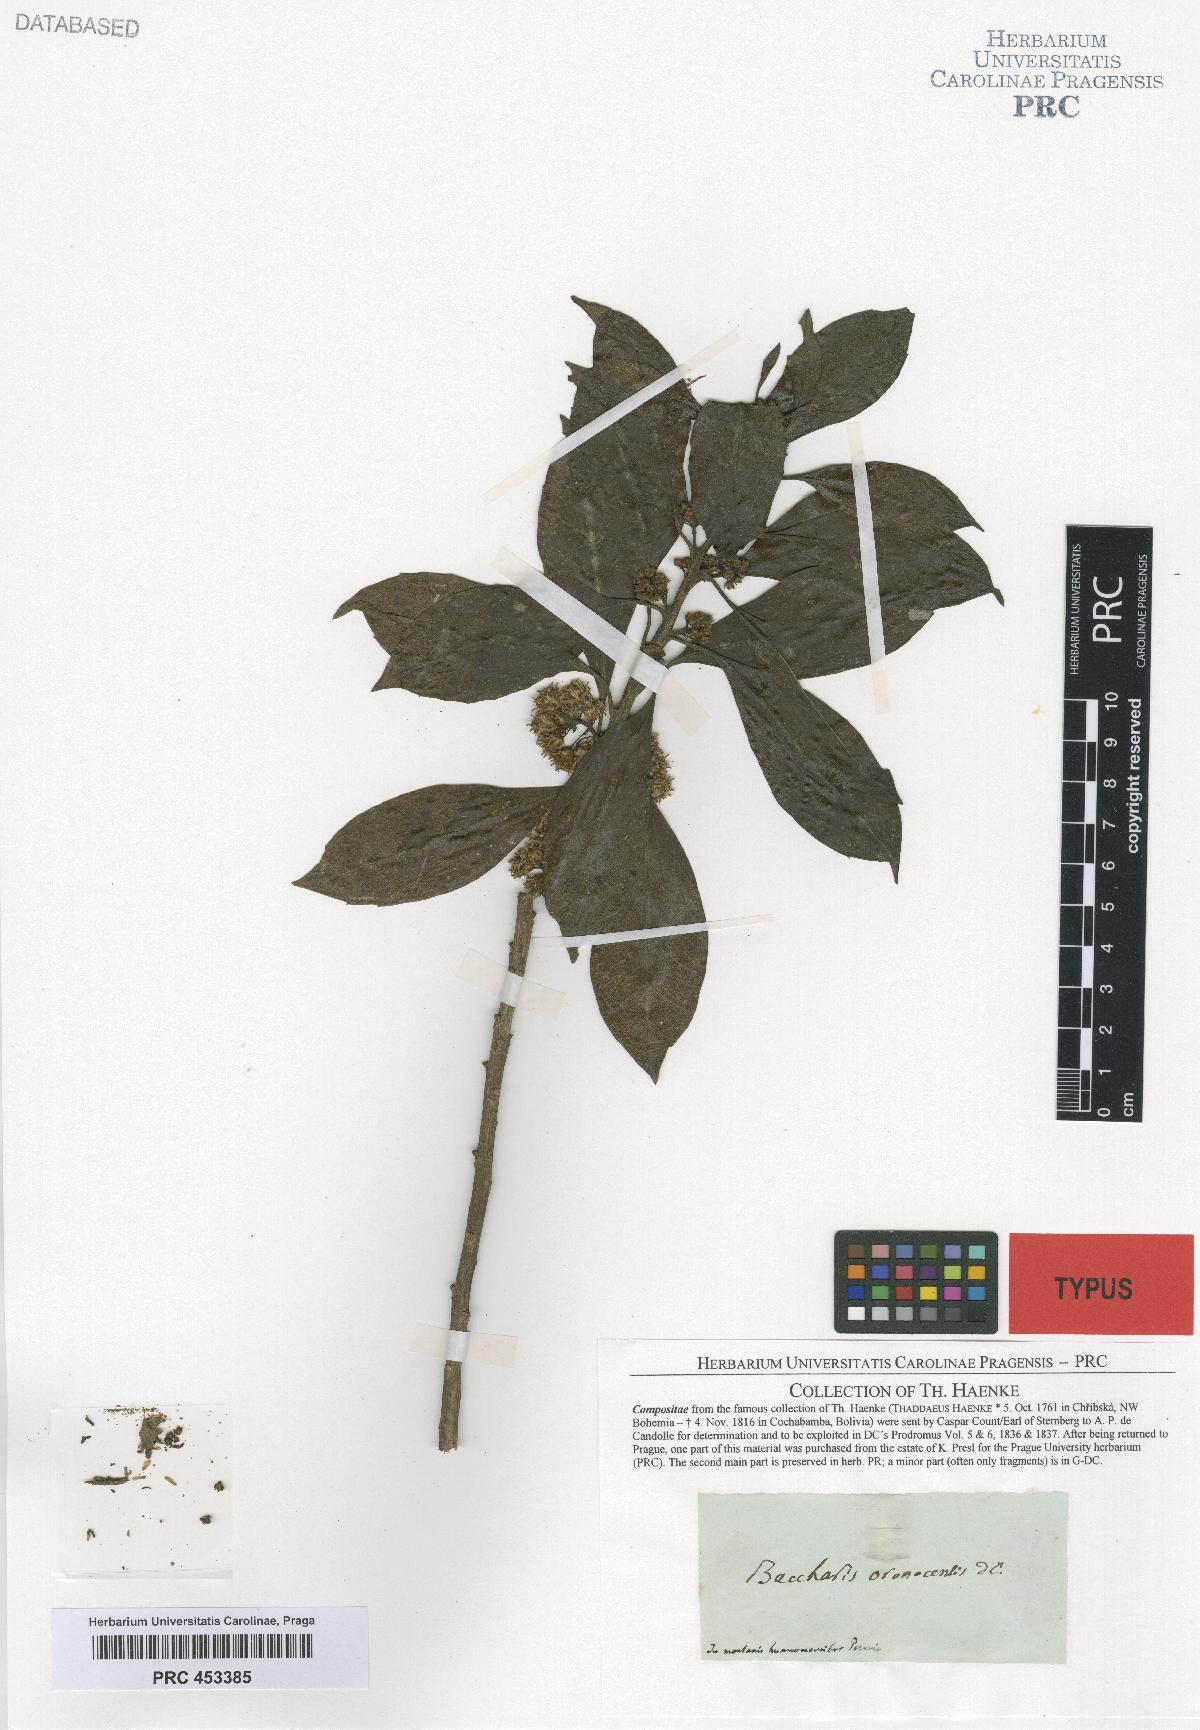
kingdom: Plantae
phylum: Tracheophyta
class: Magnoliopsida
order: Asterales
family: Asteraceae
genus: Baccharis
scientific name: Baccharis nitida
